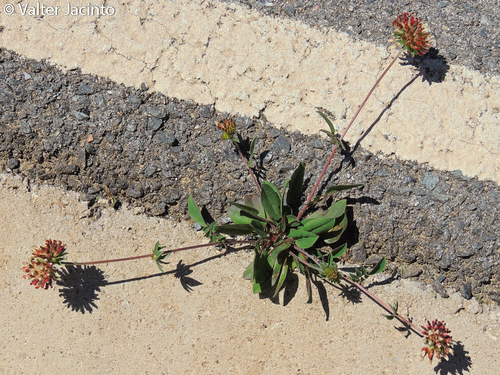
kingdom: Plantae
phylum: Tracheophyta
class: Magnoliopsida
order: Fabales
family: Fabaceae
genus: Anthyllis
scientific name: Anthyllis vulneraria
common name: Kidney vetch
